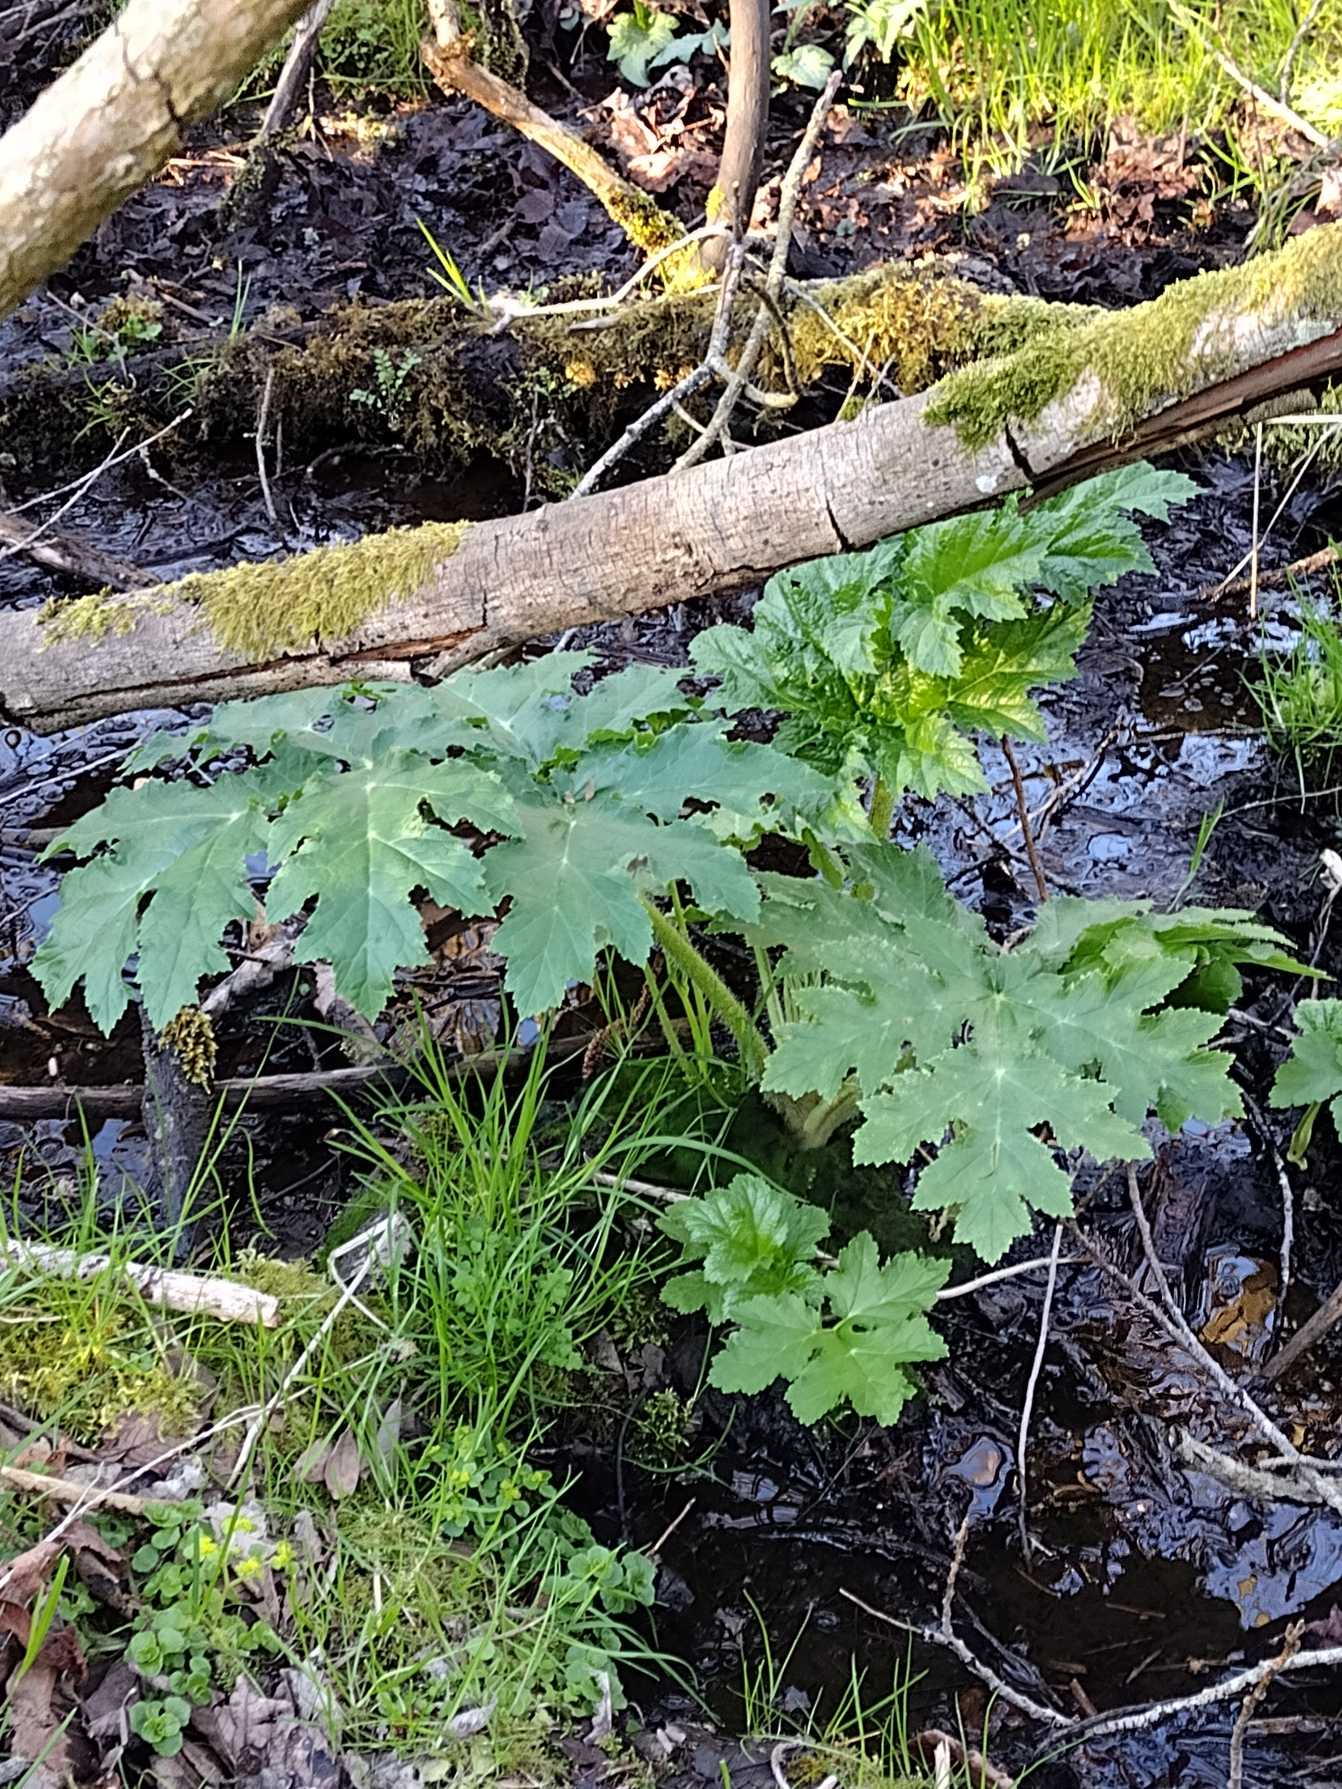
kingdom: Plantae
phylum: Tracheophyta
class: Magnoliopsida
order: Apiales
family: Apiaceae
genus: Heracleum
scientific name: Heracleum mantegazzianum
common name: Kæmpe-bjørneklo
